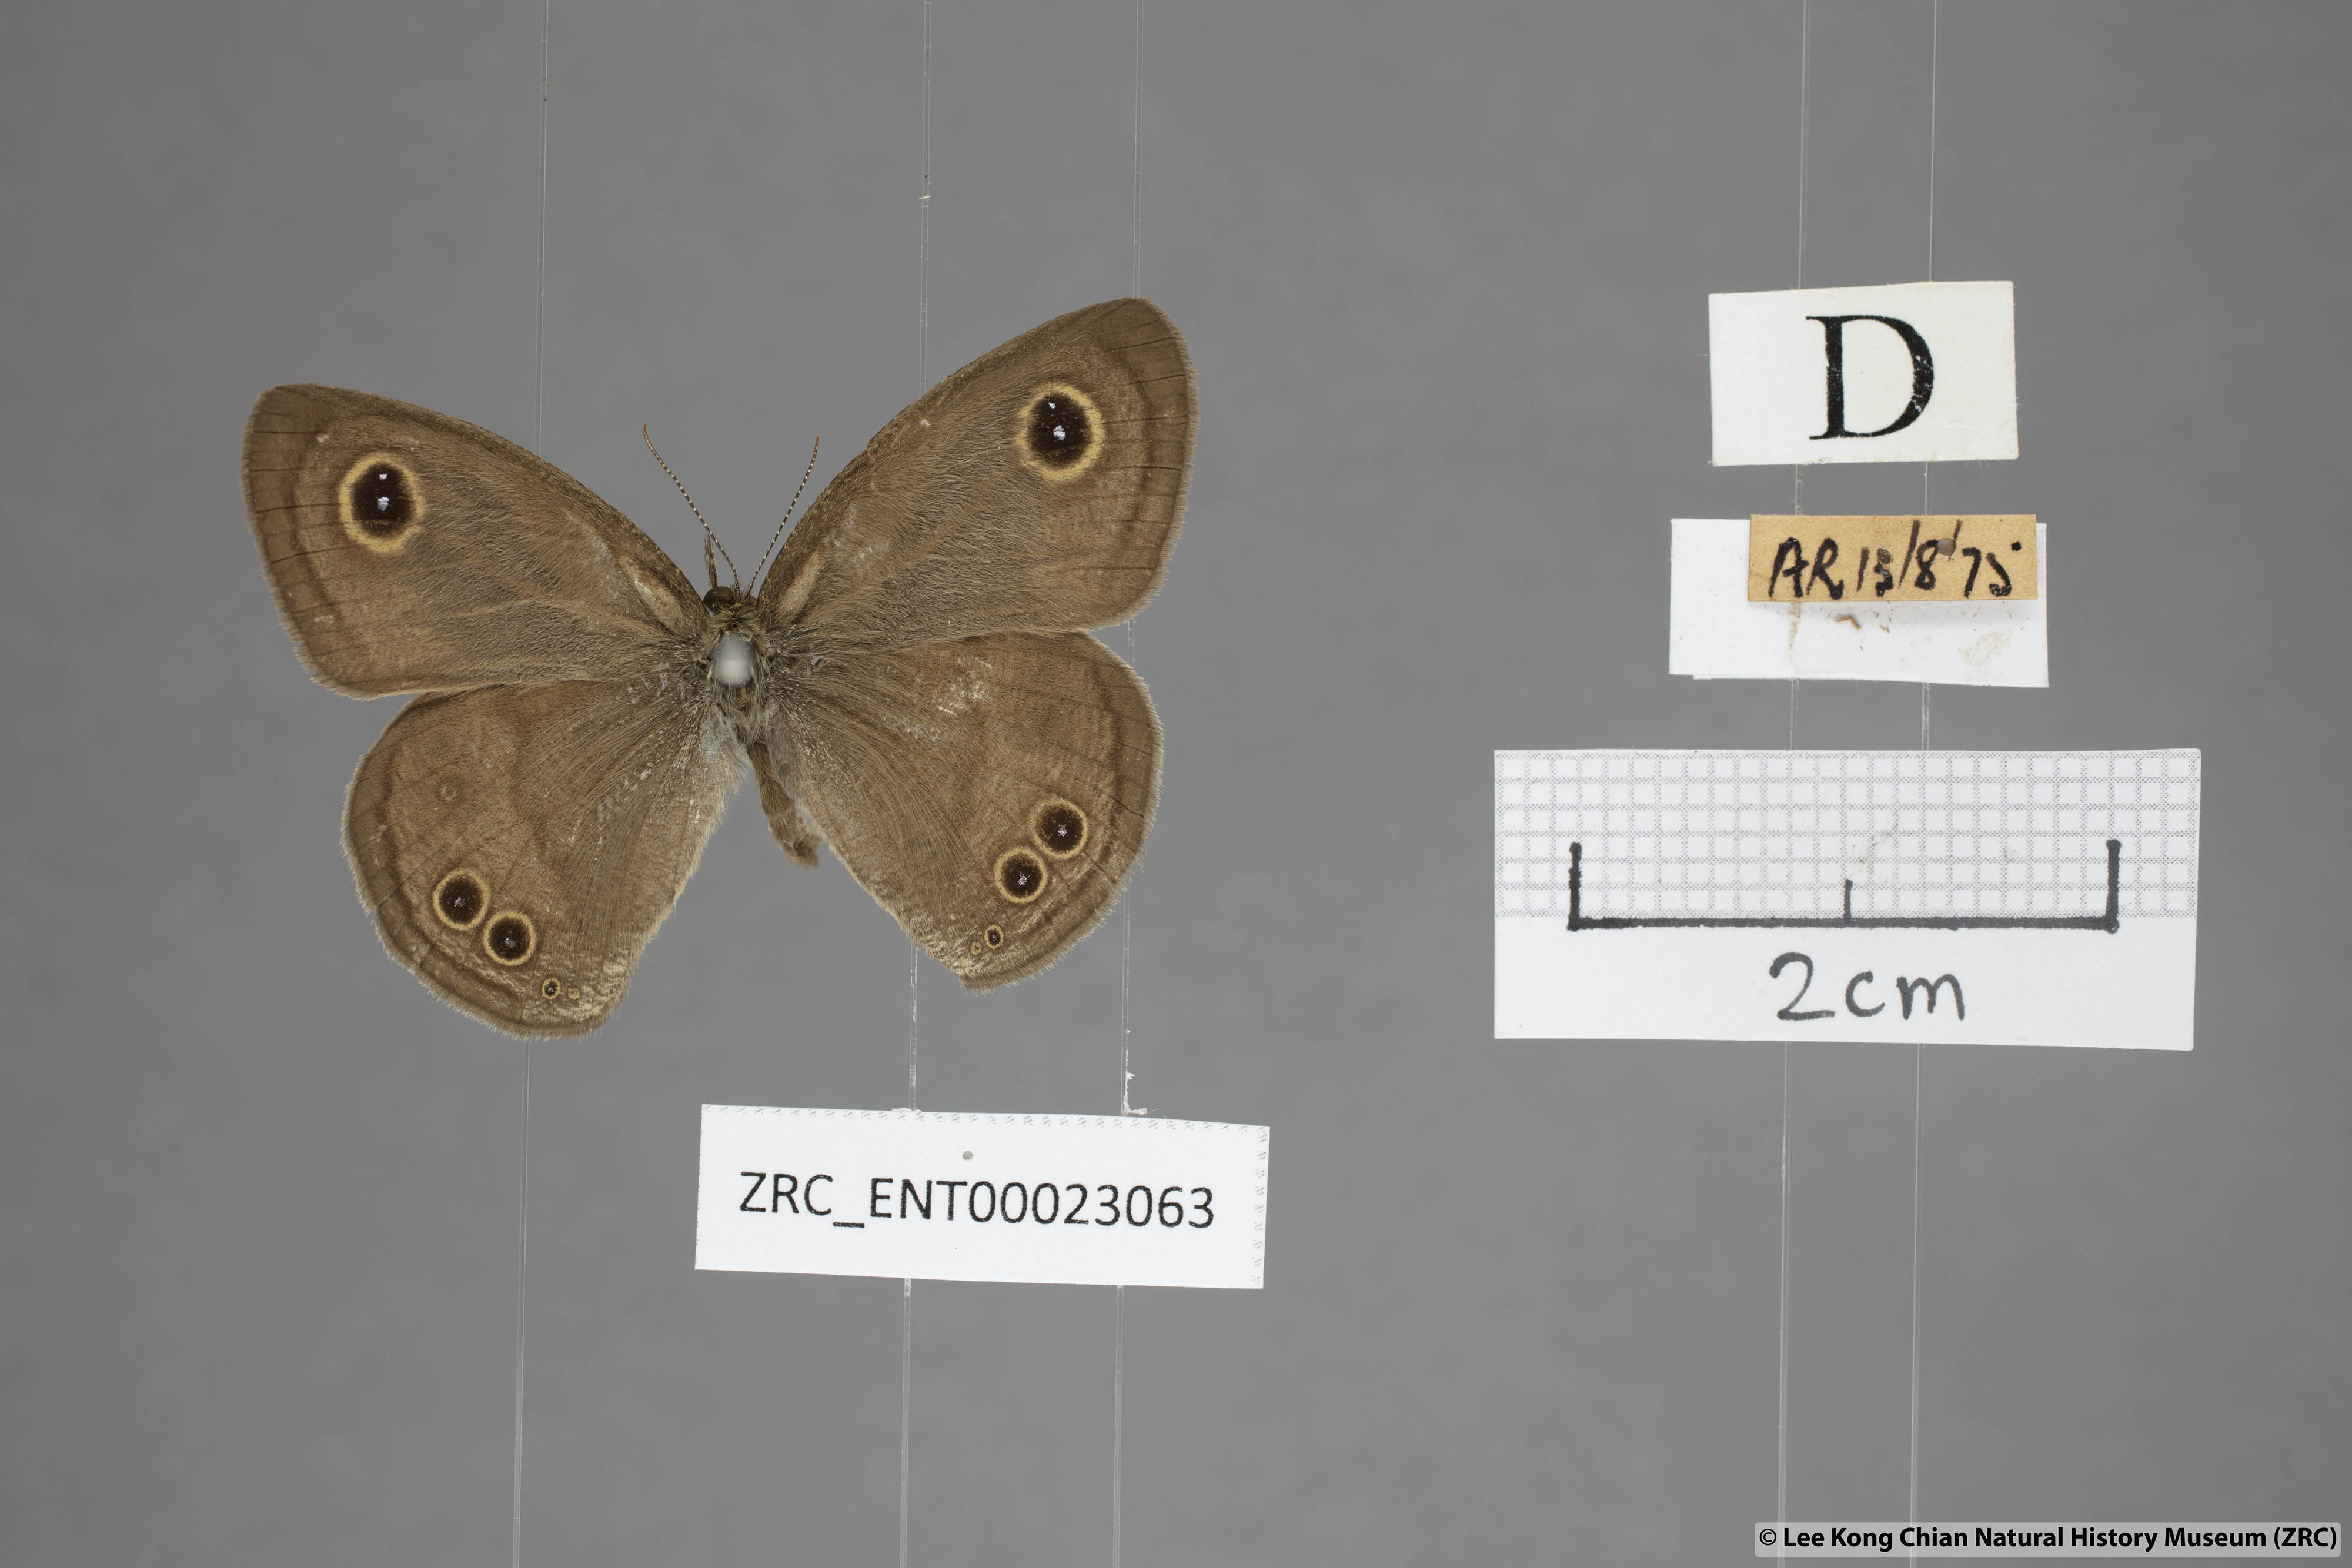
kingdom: Animalia
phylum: Arthropoda
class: Insecta
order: Lepidoptera
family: Nymphalidae
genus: Ypthima
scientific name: Ypthima baldus
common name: Common five-ring
